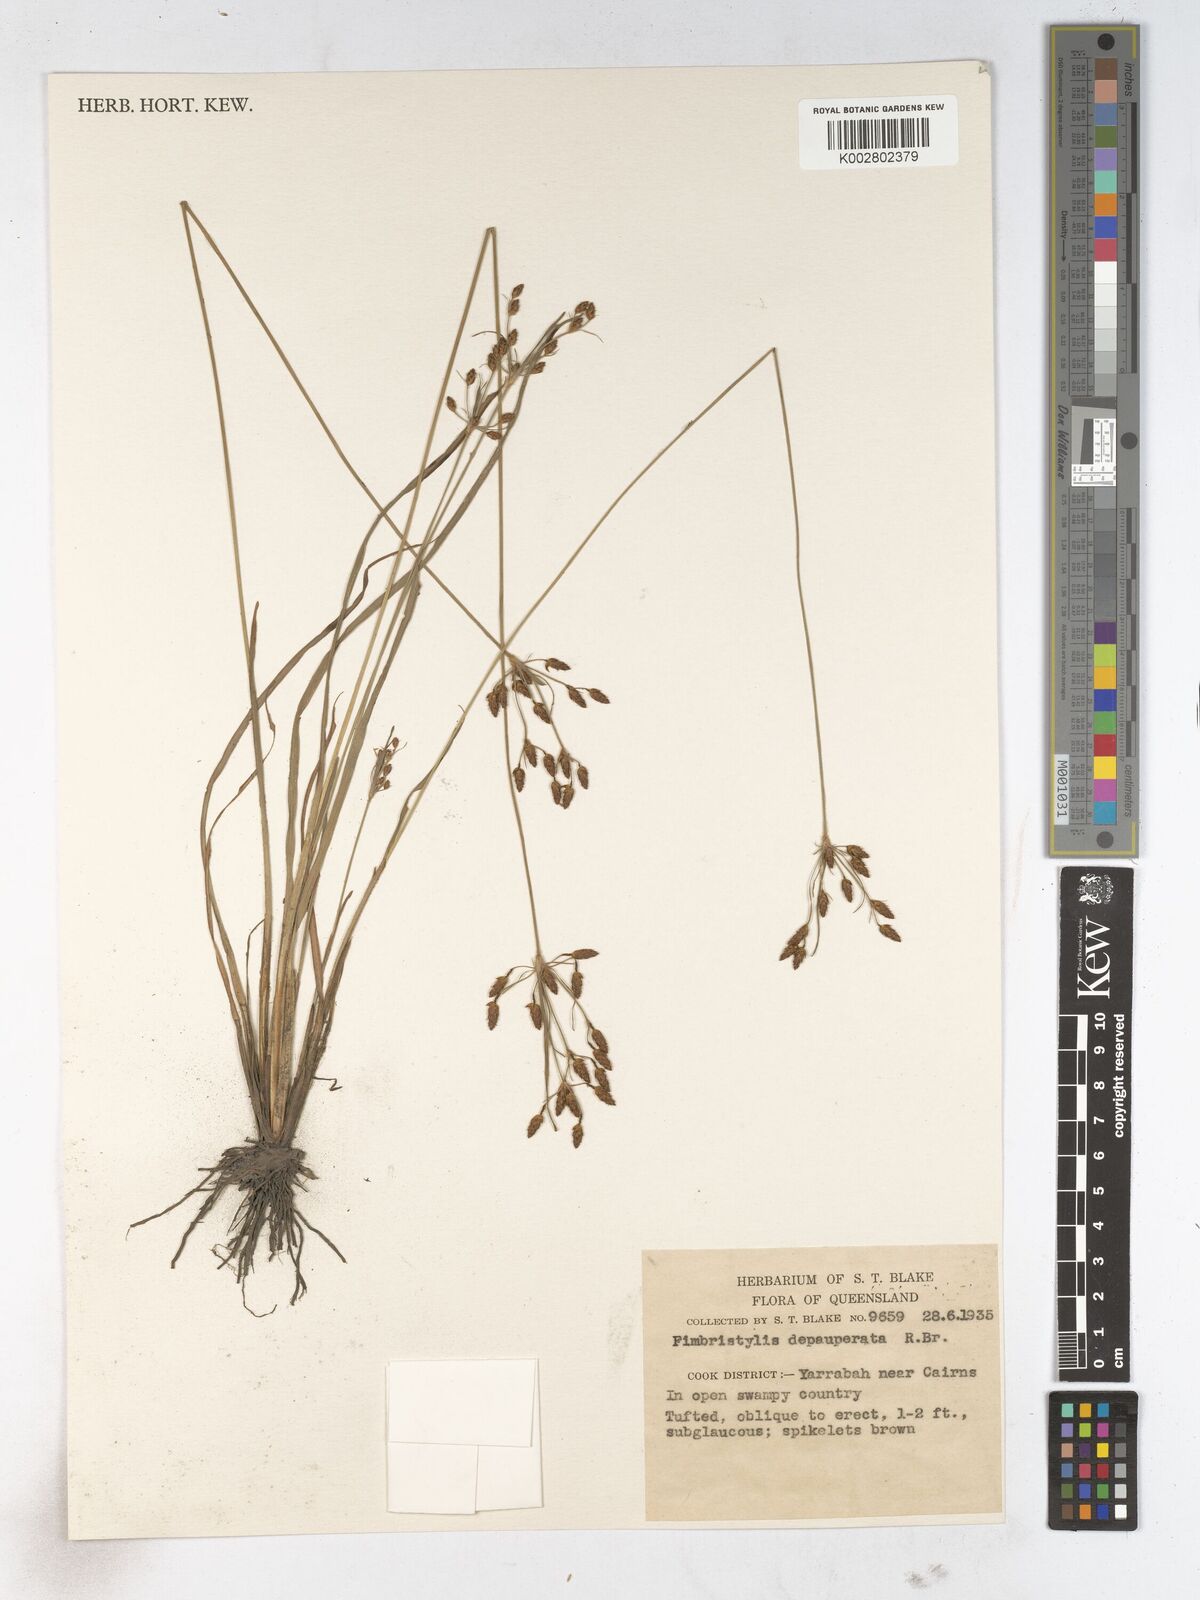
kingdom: Plantae
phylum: Tracheophyta
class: Liliopsida
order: Poales
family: Cyperaceae
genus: Fimbristylis
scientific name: Fimbristylis dichotoma
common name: Forked fimbry
